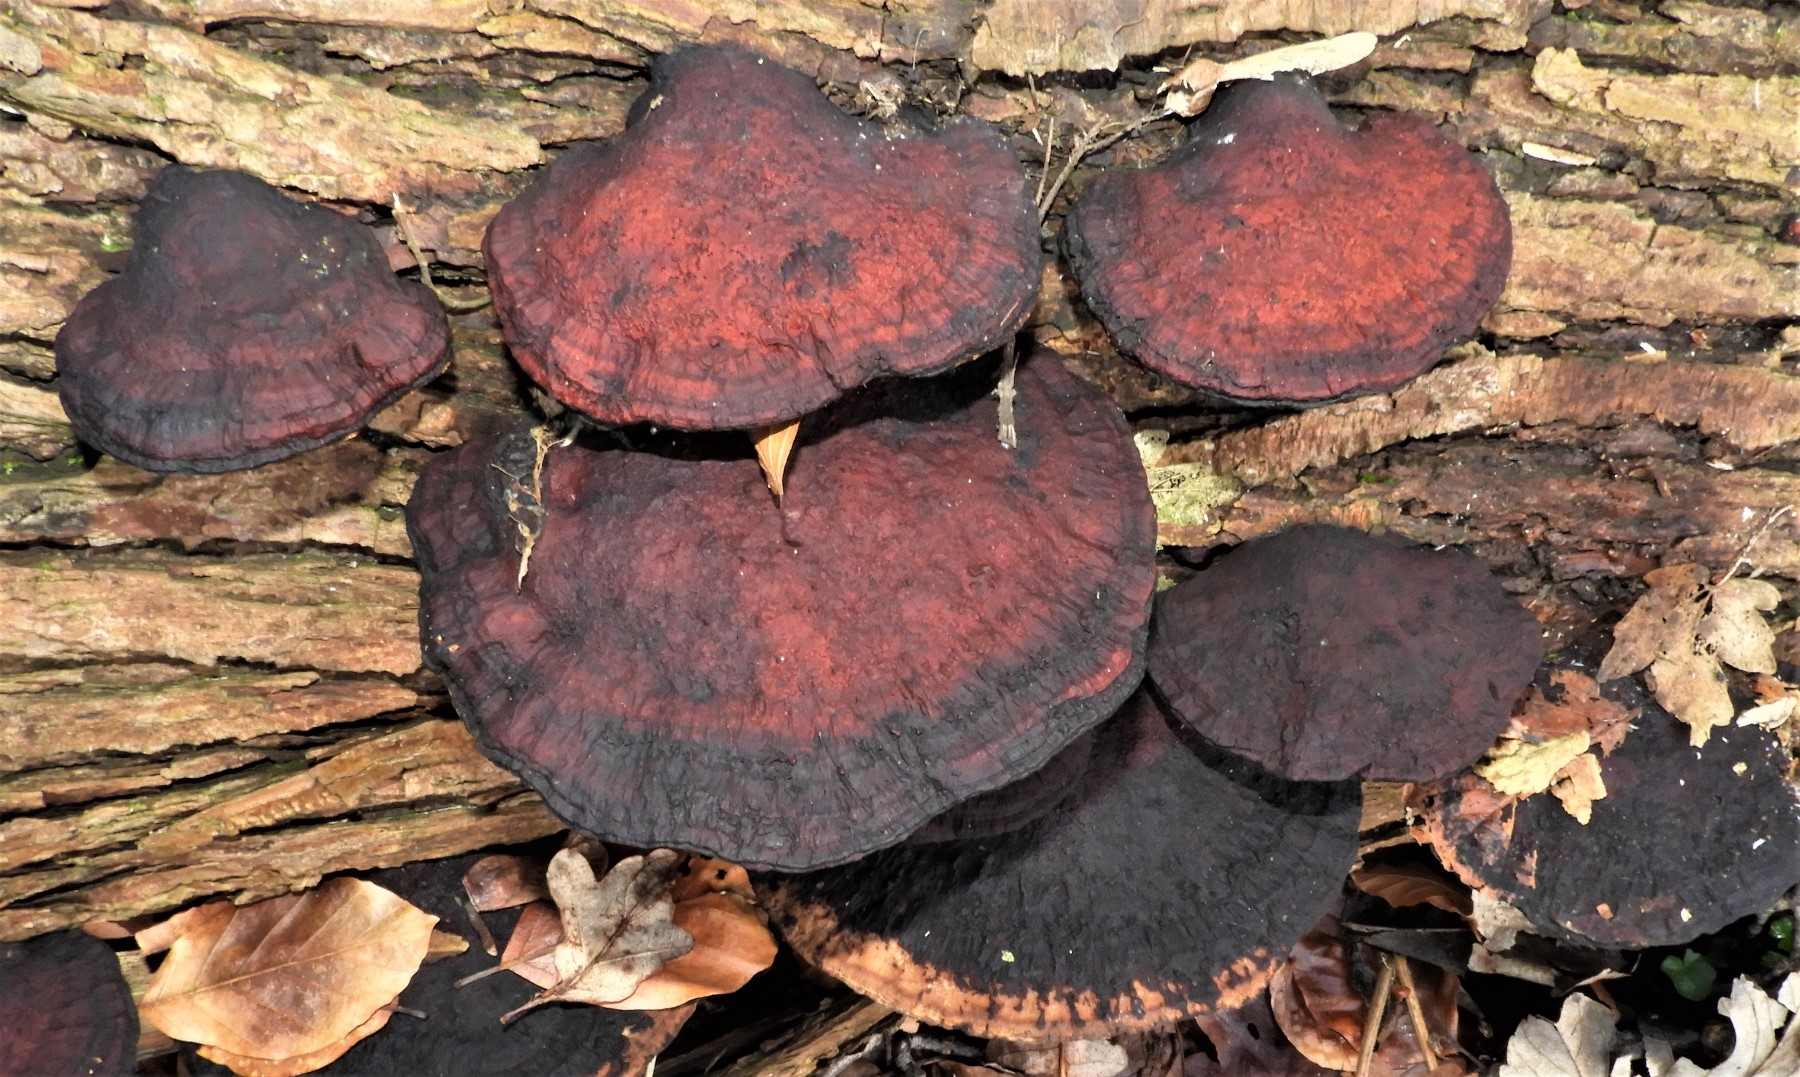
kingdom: Fungi
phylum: Basidiomycota
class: Agaricomycetes
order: Polyporales
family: Polyporaceae
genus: Daedaleopsis
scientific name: Daedaleopsis confragosa
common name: rødmende læderporesvamp
